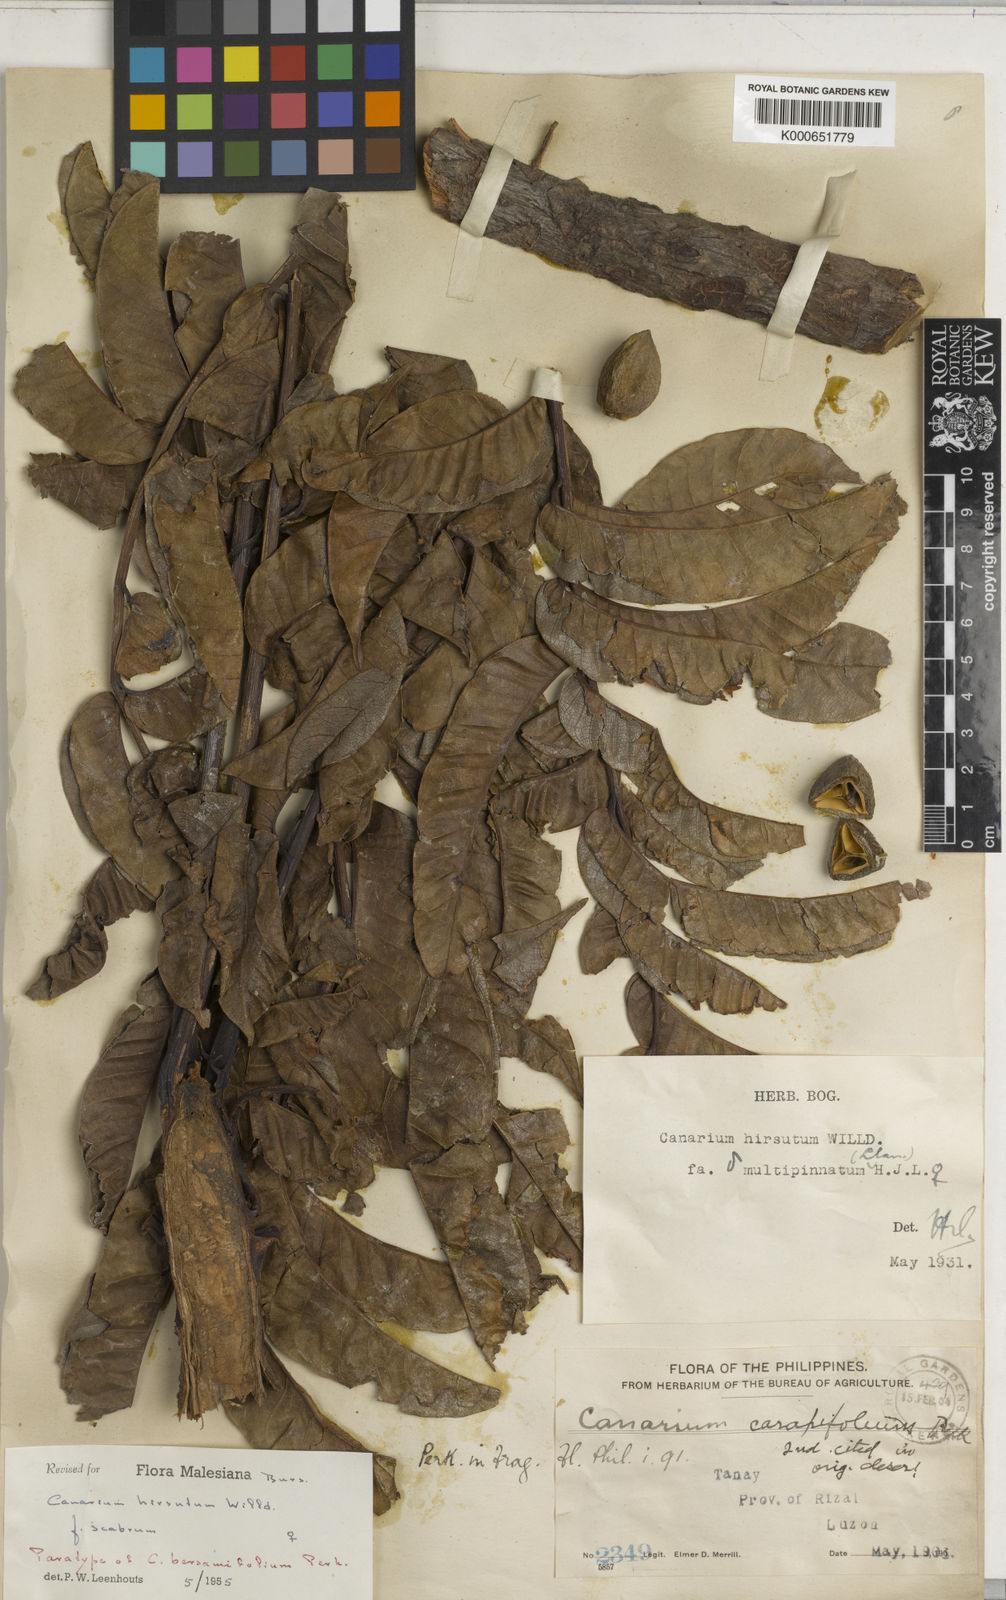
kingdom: Plantae
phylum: Tracheophyta
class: Magnoliopsida
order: Sapindales
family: Burseraceae
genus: Canarium
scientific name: Canarium hirsutum
